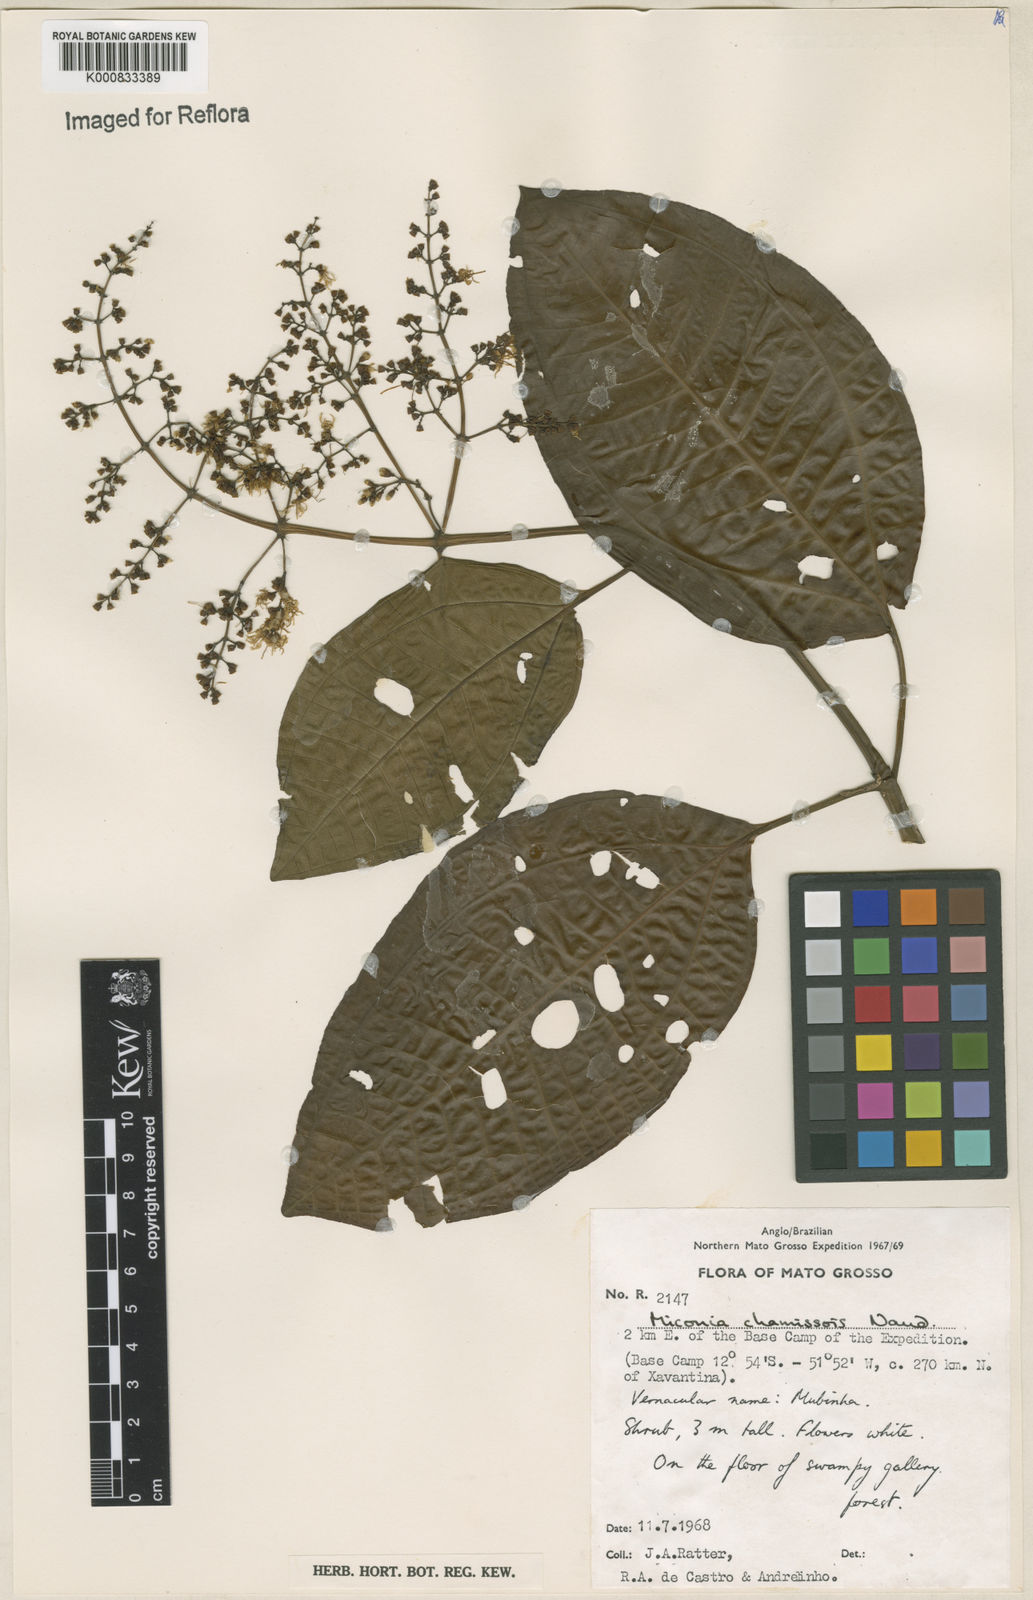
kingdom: Plantae
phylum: Tracheophyta
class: Magnoliopsida
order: Myrtales
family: Melastomataceae
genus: Miconia
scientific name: Miconia chamissois
